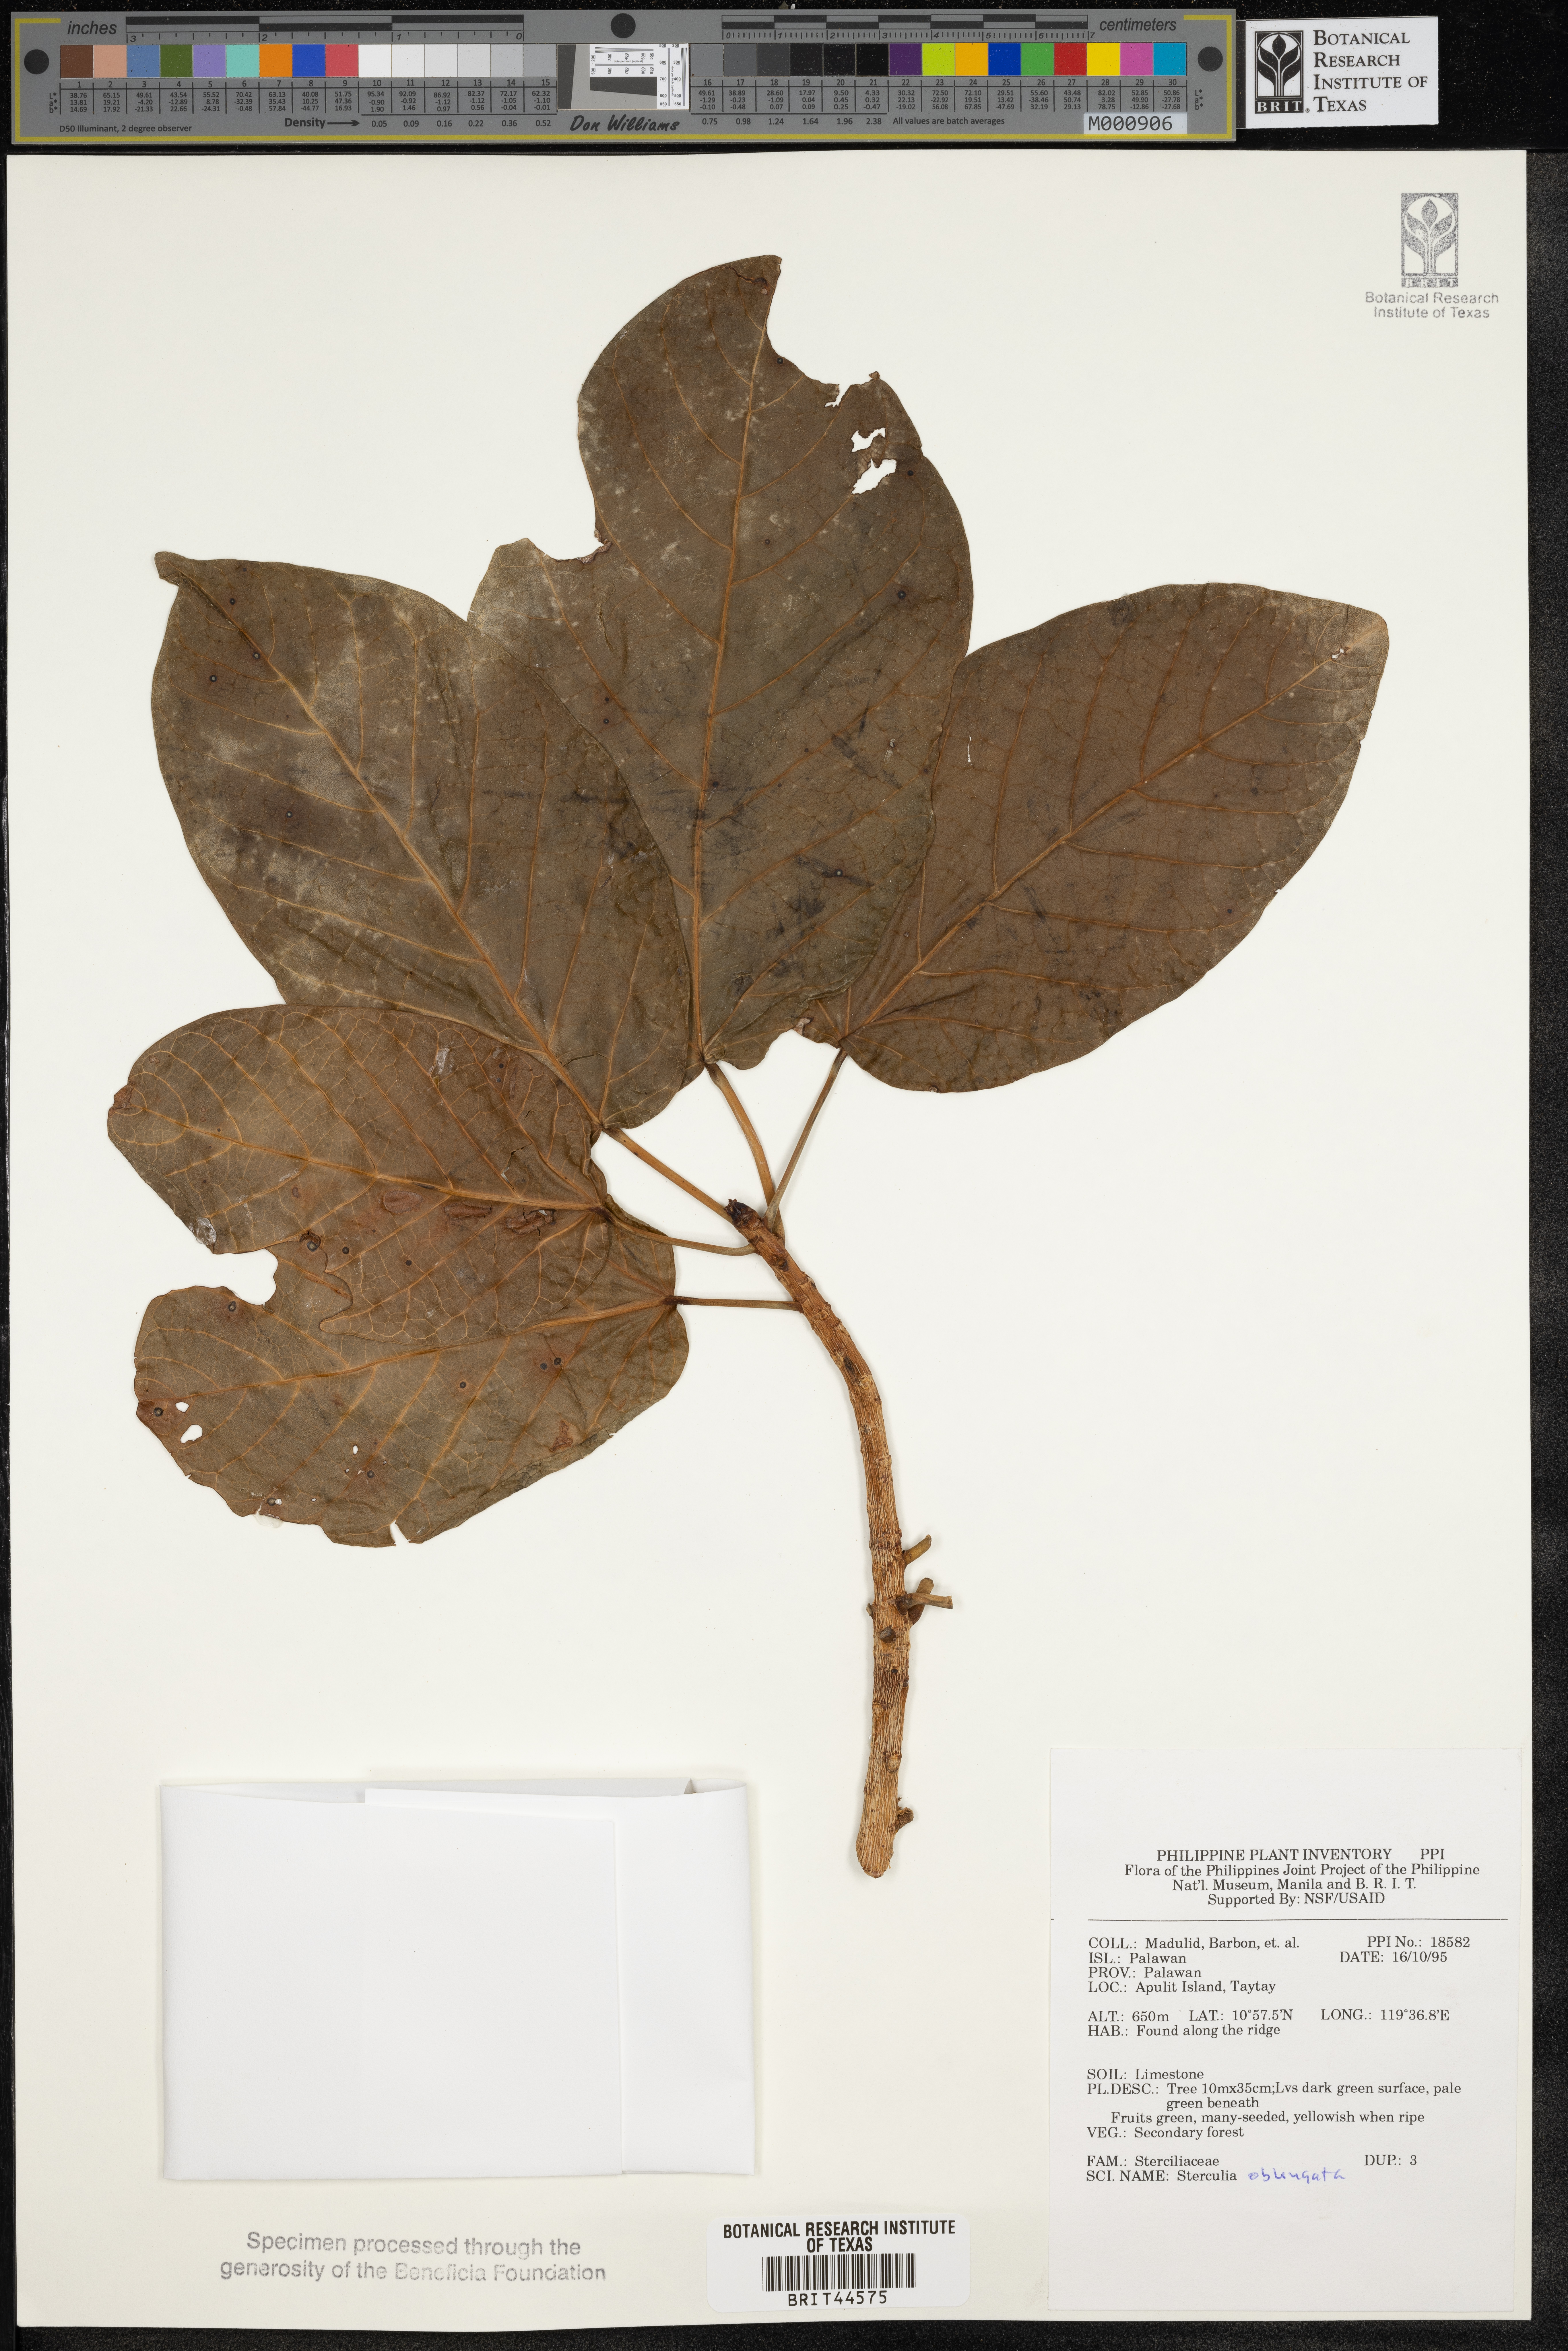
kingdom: Plantae
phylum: Tracheophyta
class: Magnoliopsida
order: Malvales
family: Malvaceae
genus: Sterculia
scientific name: Sterculia oblongata
